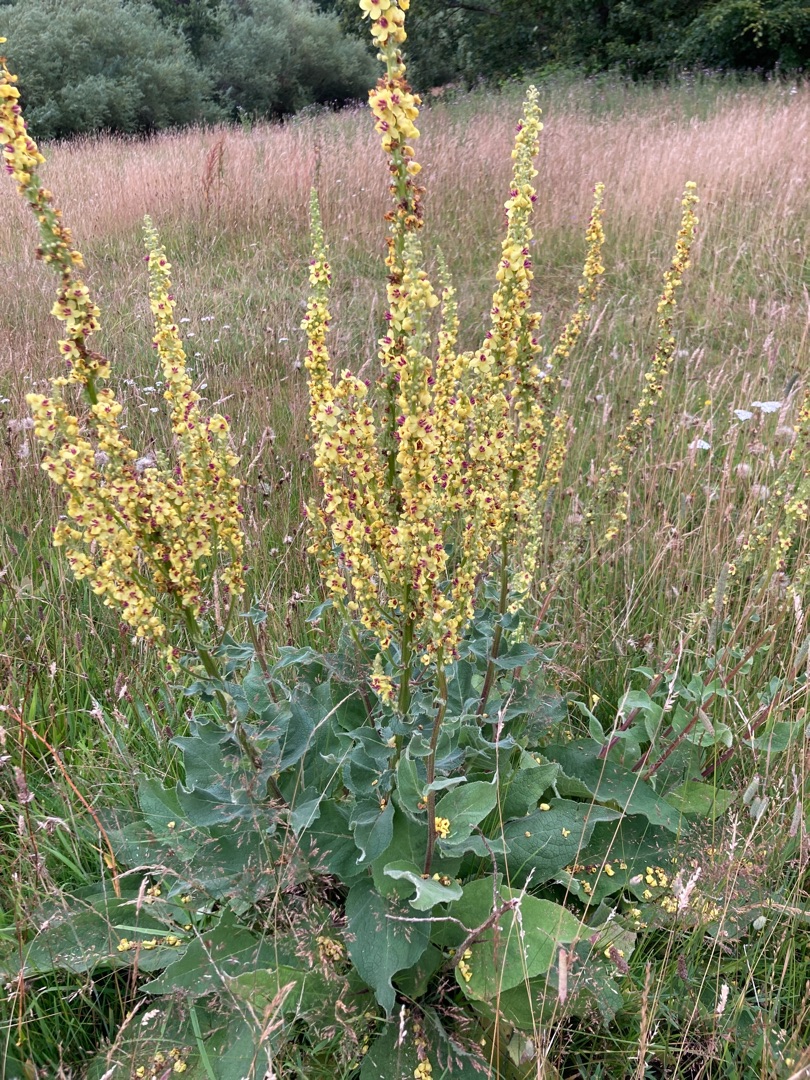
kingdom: Plantae
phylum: Tracheophyta
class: Magnoliopsida
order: Lamiales
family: Scrophulariaceae
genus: Verbascum
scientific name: Verbascum nigrum
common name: Mørk kongelys
